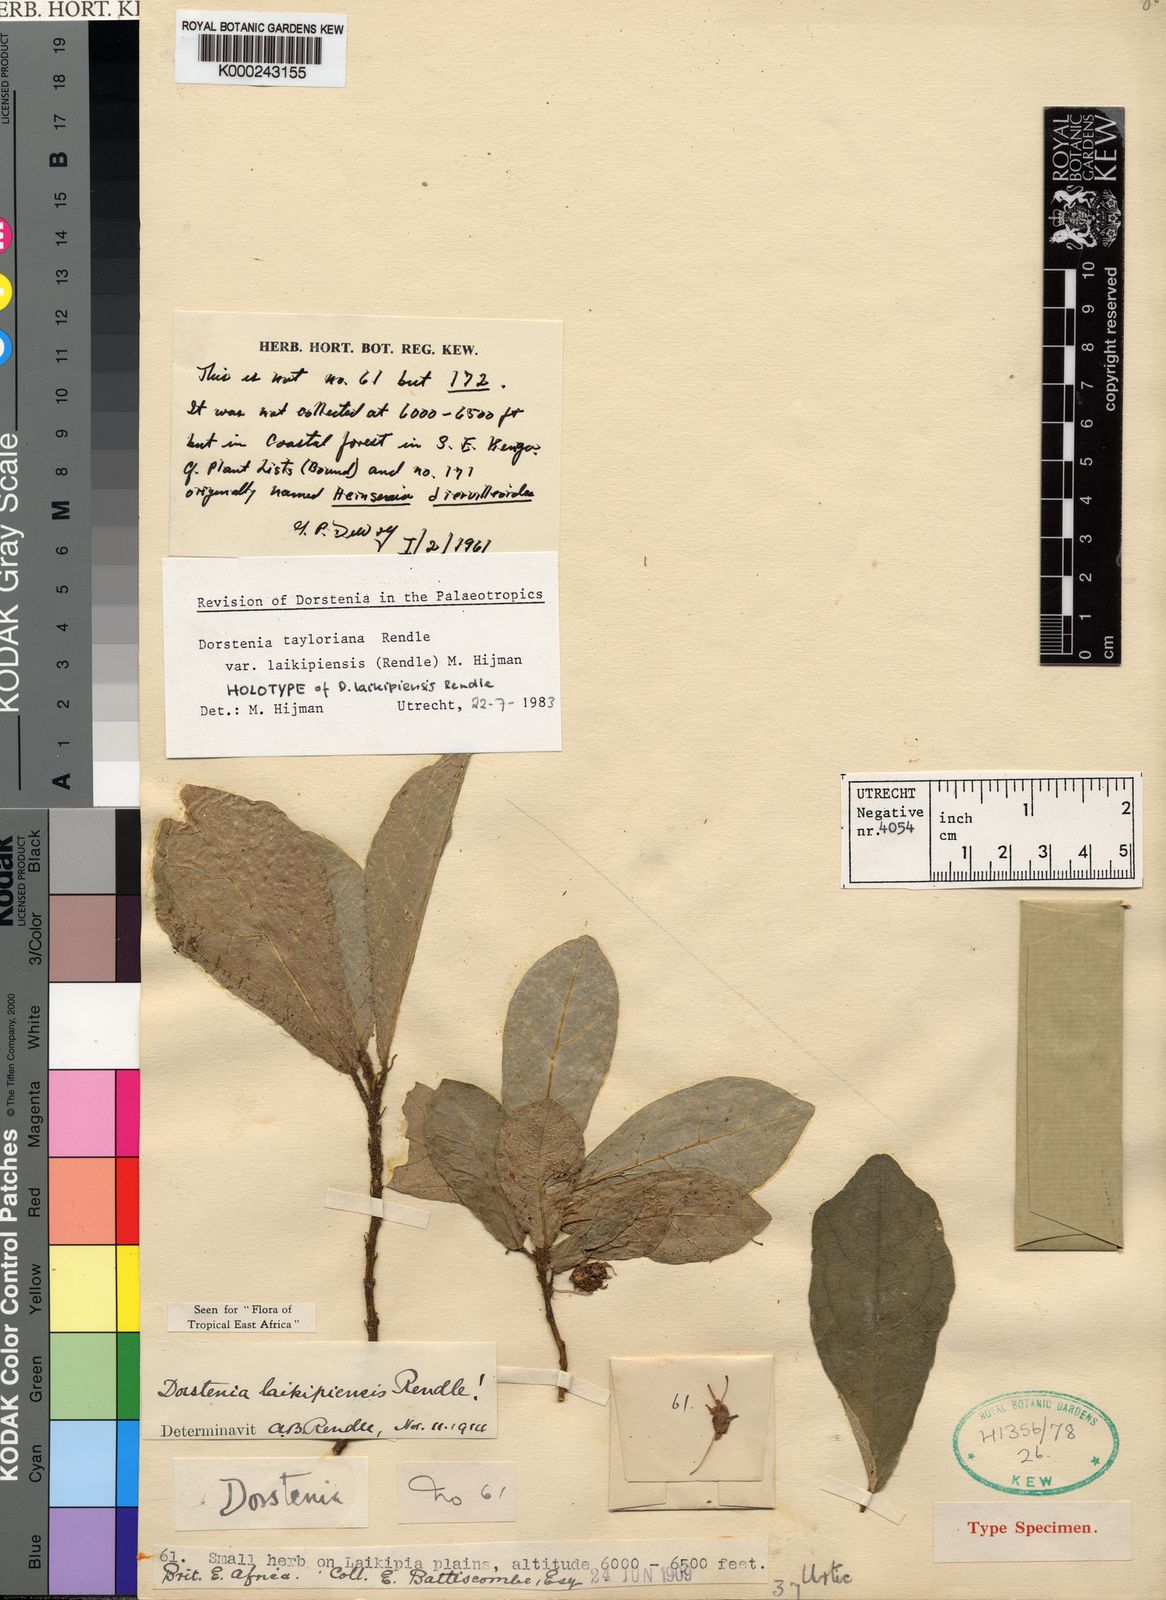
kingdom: Plantae
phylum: Tracheophyta
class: Magnoliopsida
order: Rosales
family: Moraceae
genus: Dorstenia
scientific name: Dorstenia tayloriana
